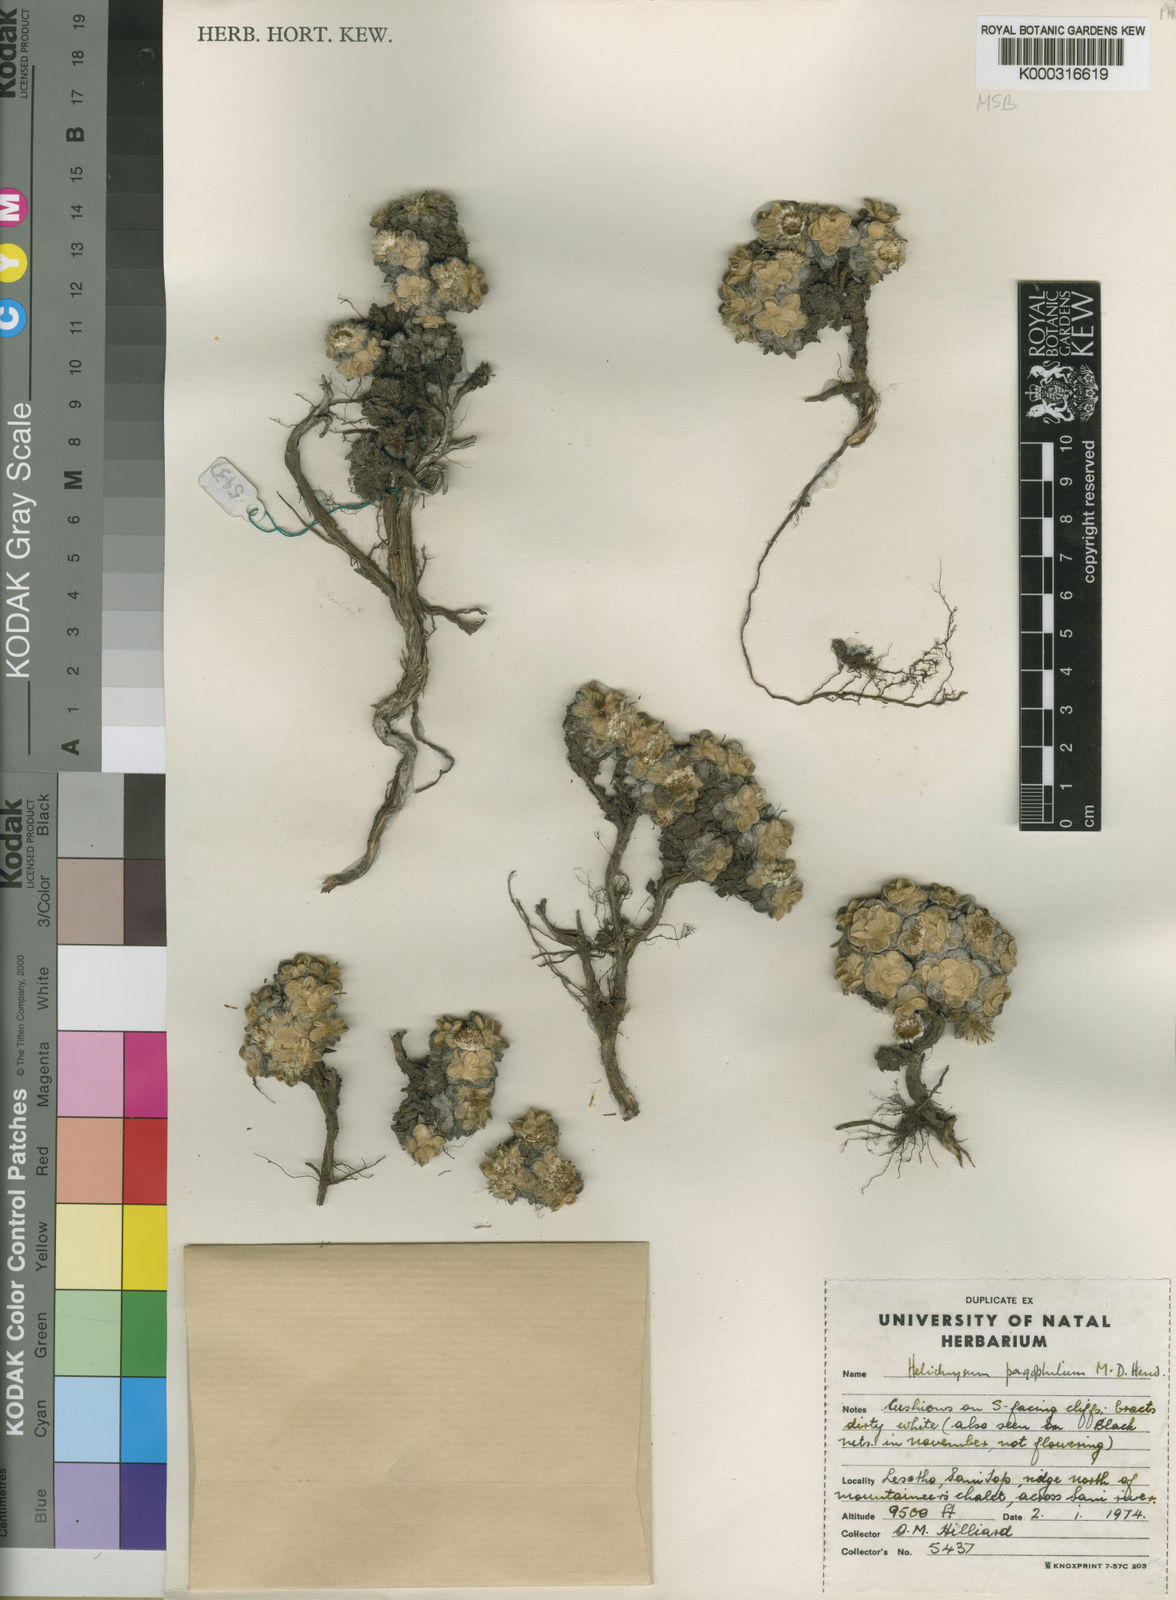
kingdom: Plantae
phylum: Tracheophyta
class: Magnoliopsida
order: Asterales
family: Asteraceae
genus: Helichrysum
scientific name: Helichrysum pagophilum
